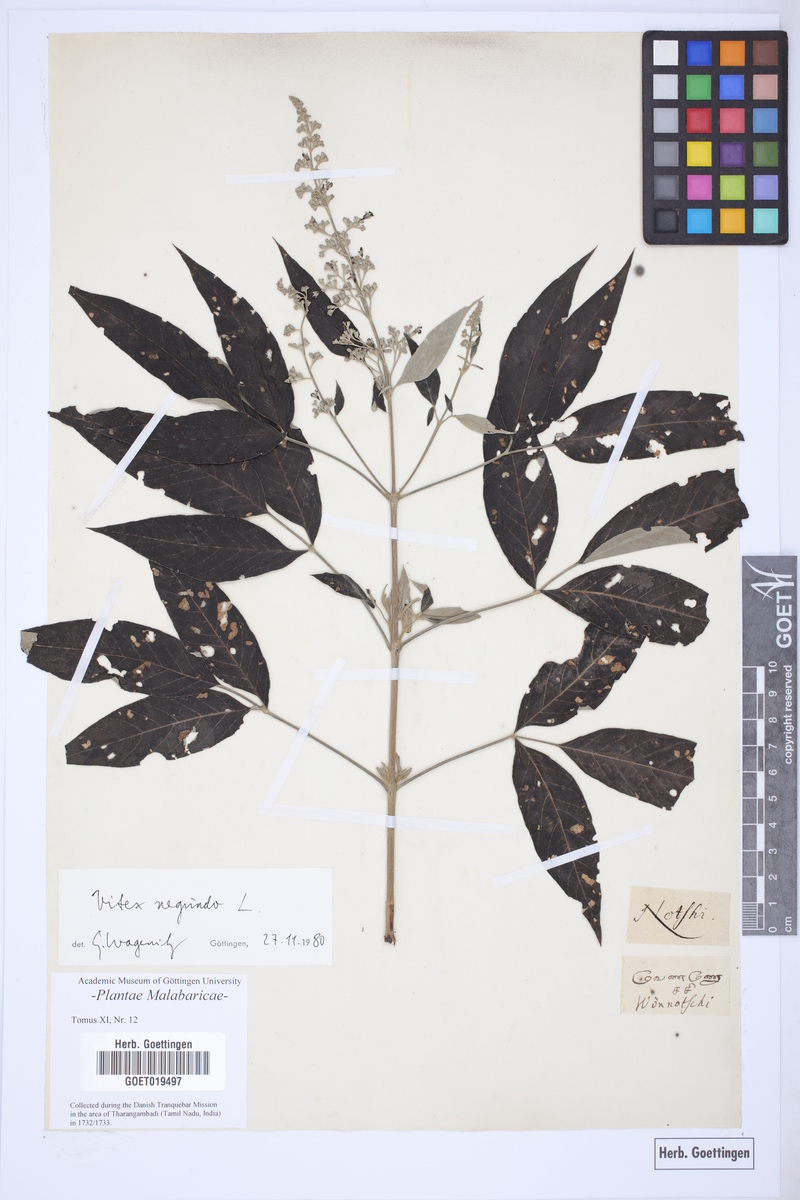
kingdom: Plantae
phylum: Tracheophyta
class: Magnoliopsida
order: Lamiales
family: Lamiaceae
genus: Vitex
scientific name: Vitex negundo
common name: Chinese chastetree
